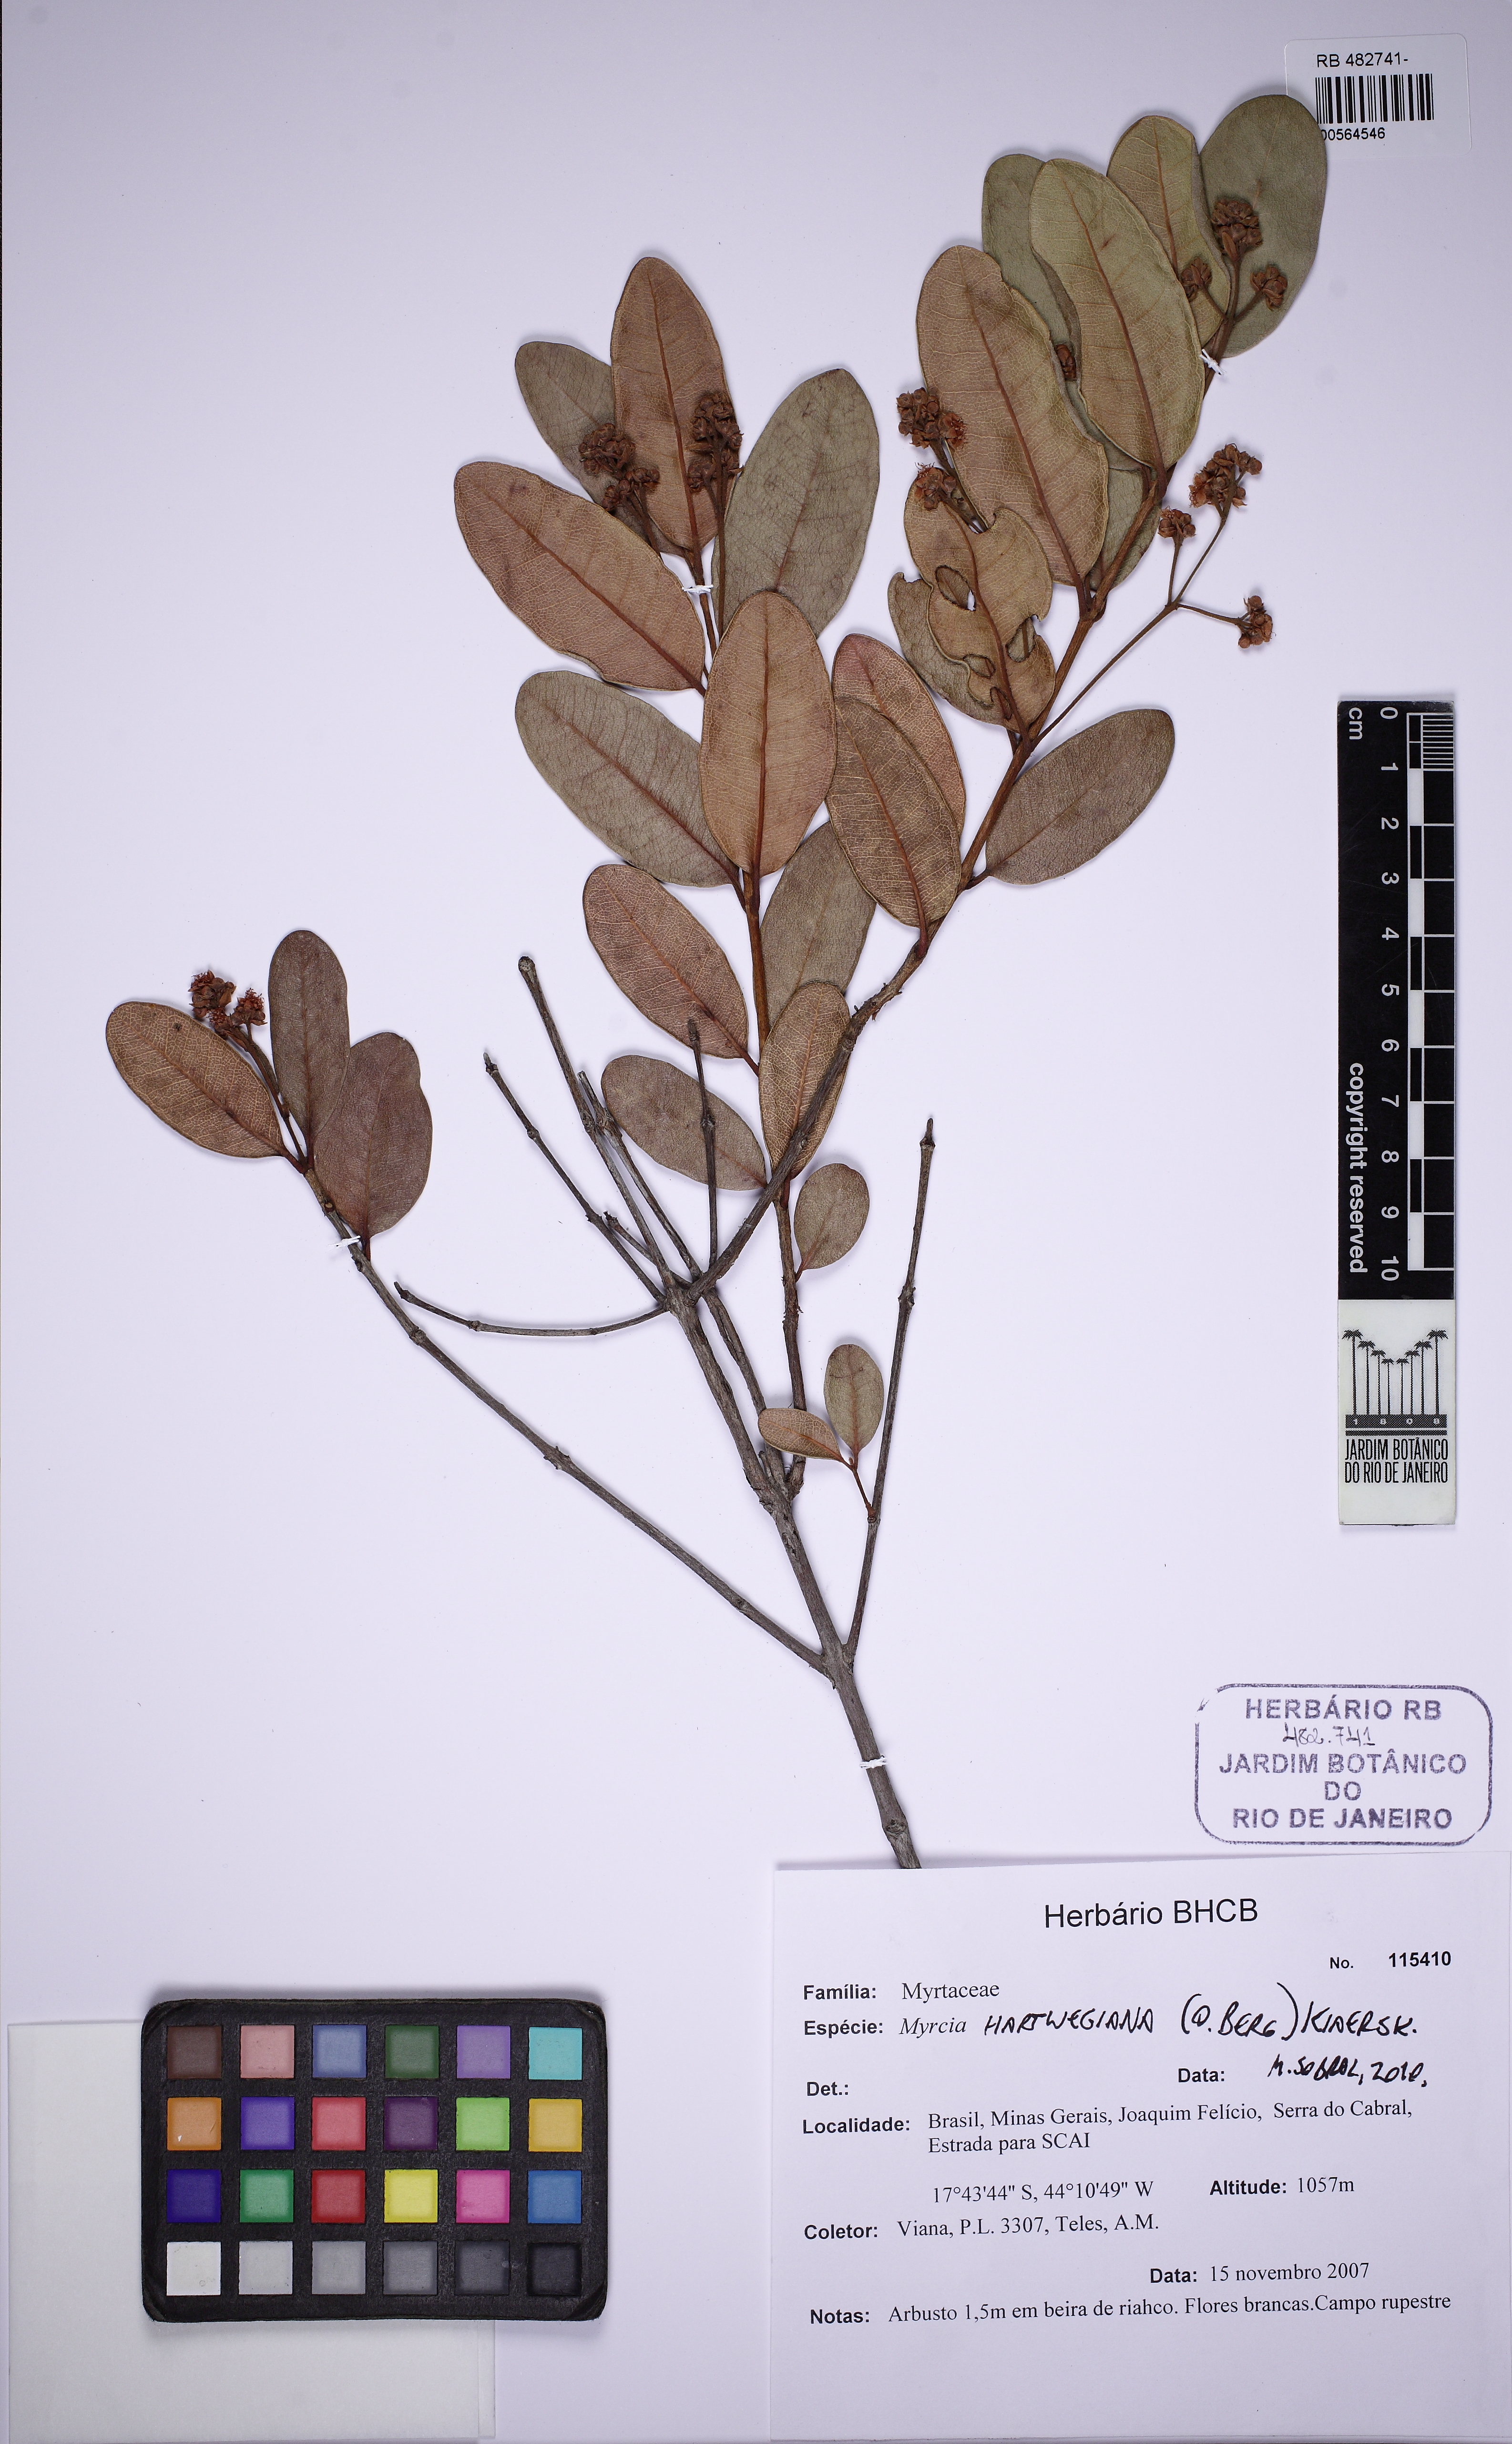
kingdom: Plantae
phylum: Tracheophyta
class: Magnoliopsida
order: Myrtales
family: Myrtaceae
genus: Myrcia
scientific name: Myrcia hartwegiana
